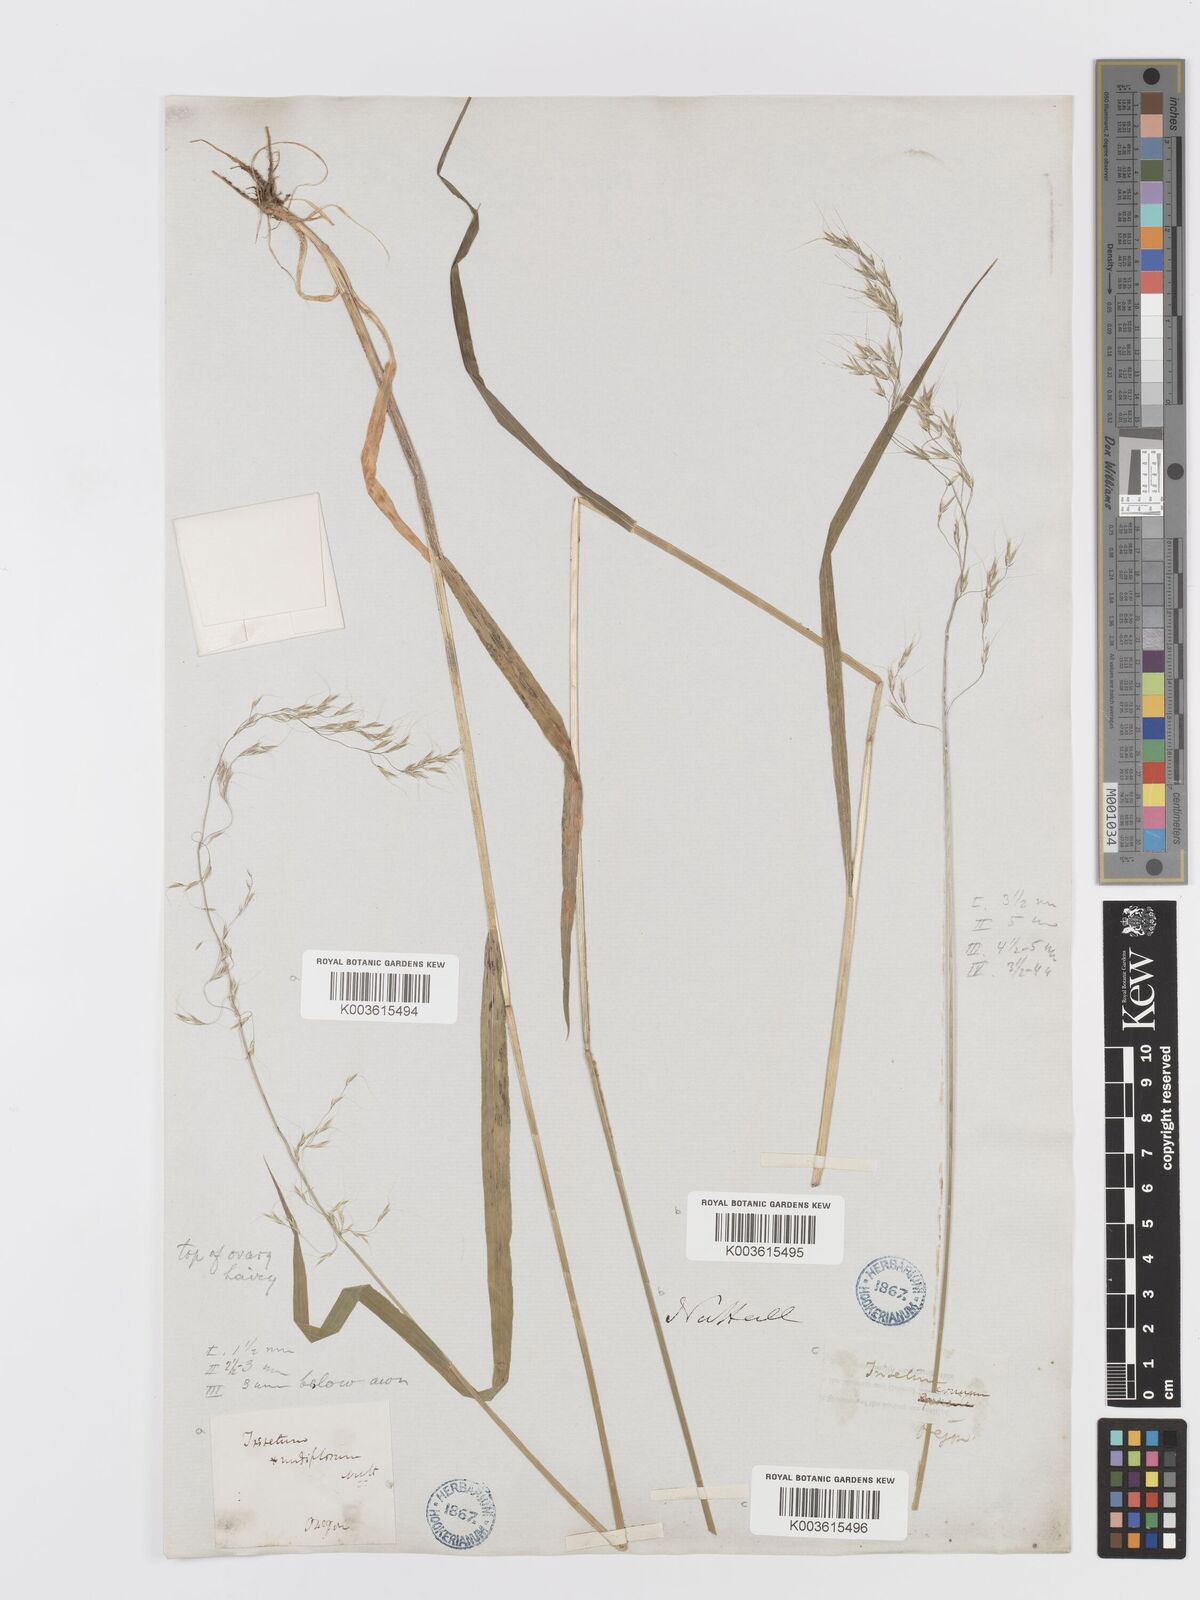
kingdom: Plantae
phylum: Tracheophyta
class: Liliopsida
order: Poales
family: Poaceae
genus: Graphephorum
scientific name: Graphephorum cernuum
